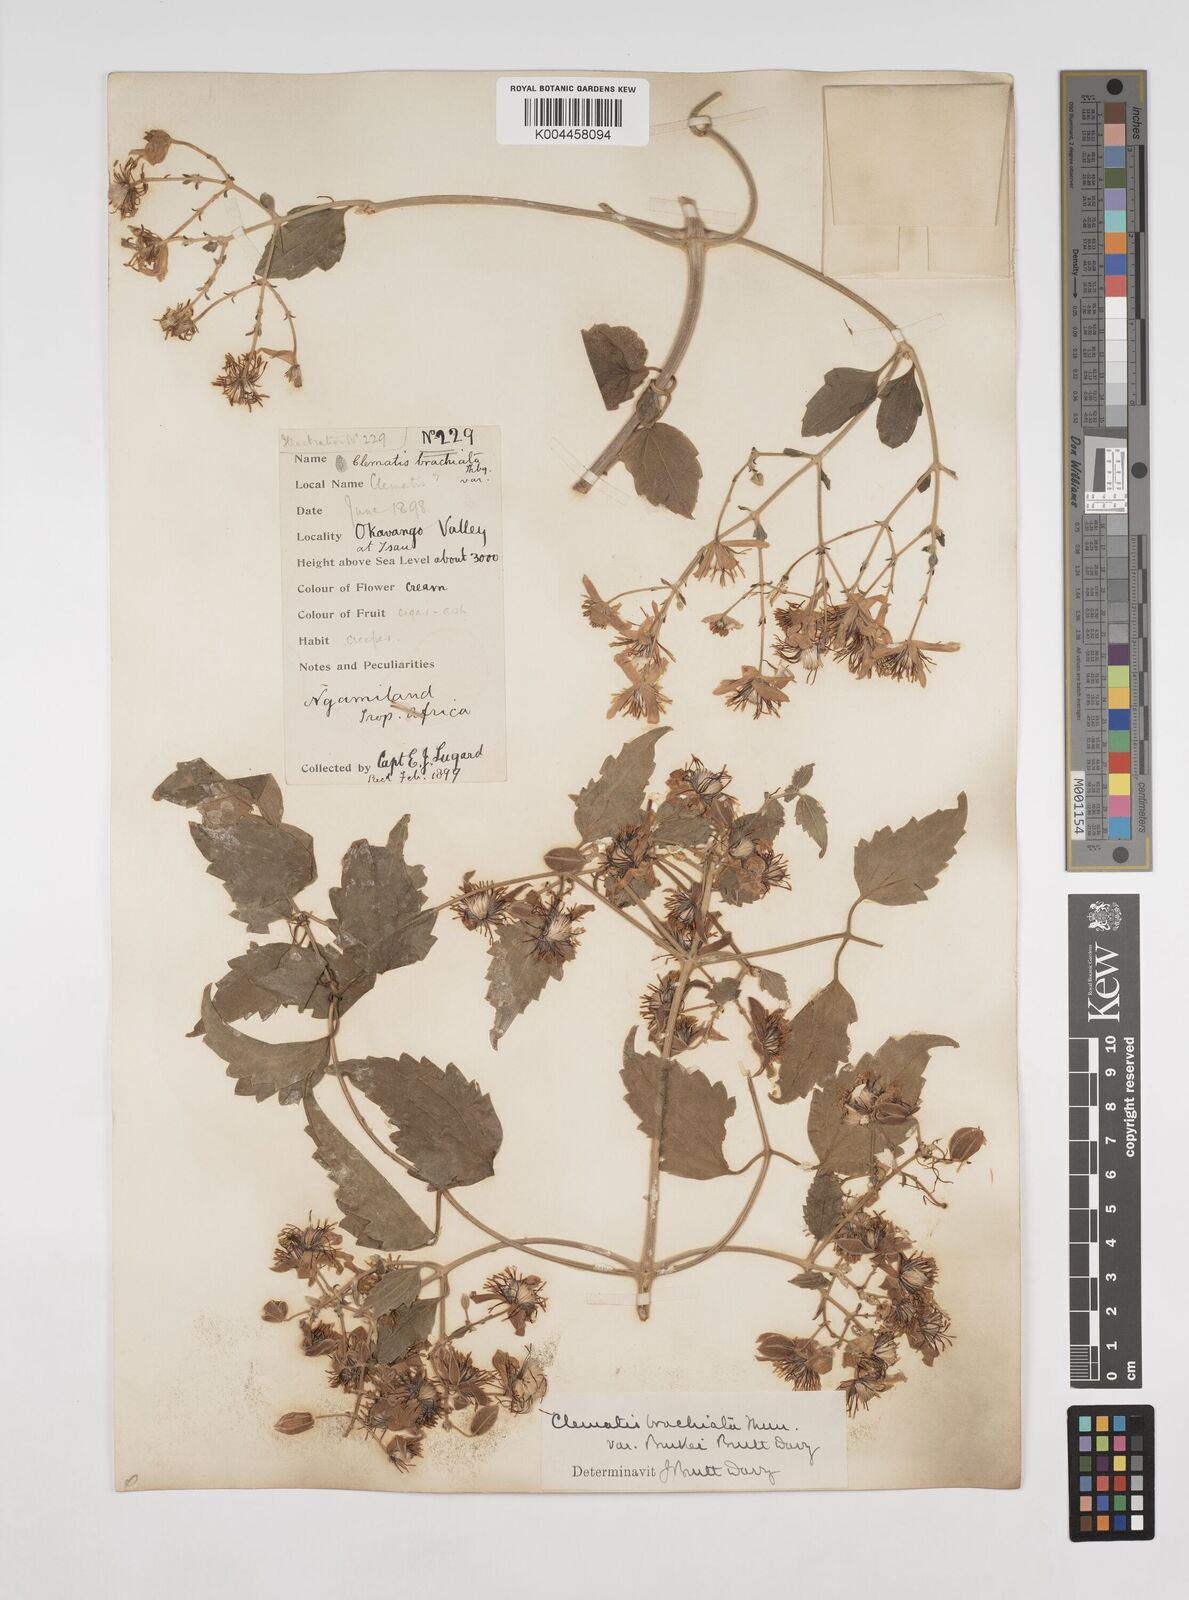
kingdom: Plantae
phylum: Tracheophyta
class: Magnoliopsida
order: Ranunculales
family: Ranunculaceae
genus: Clematis
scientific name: Clematis brachiata
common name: Traveler's-joy
